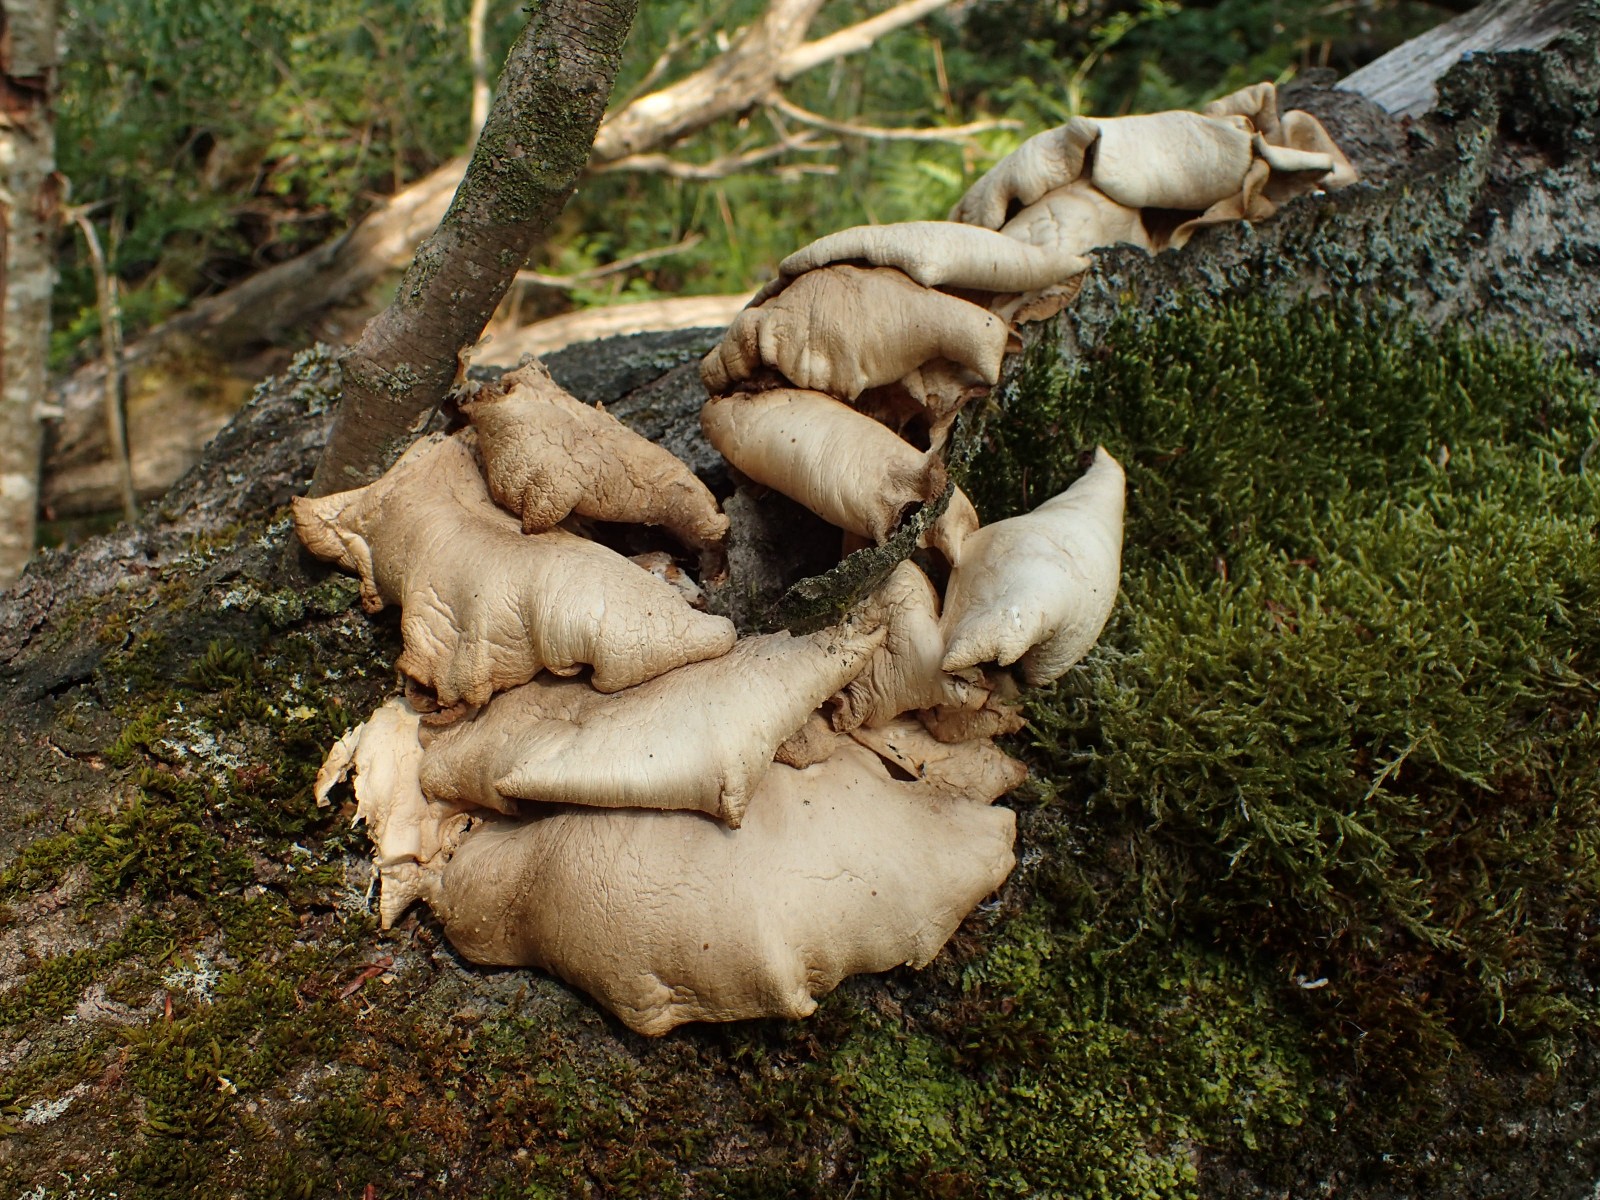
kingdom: Fungi
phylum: Basidiomycota
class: Agaricomycetes
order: Agaricales
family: Pleurotaceae
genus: Pleurotus
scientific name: Pleurotus pulmonarius
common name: sommer-østershat
